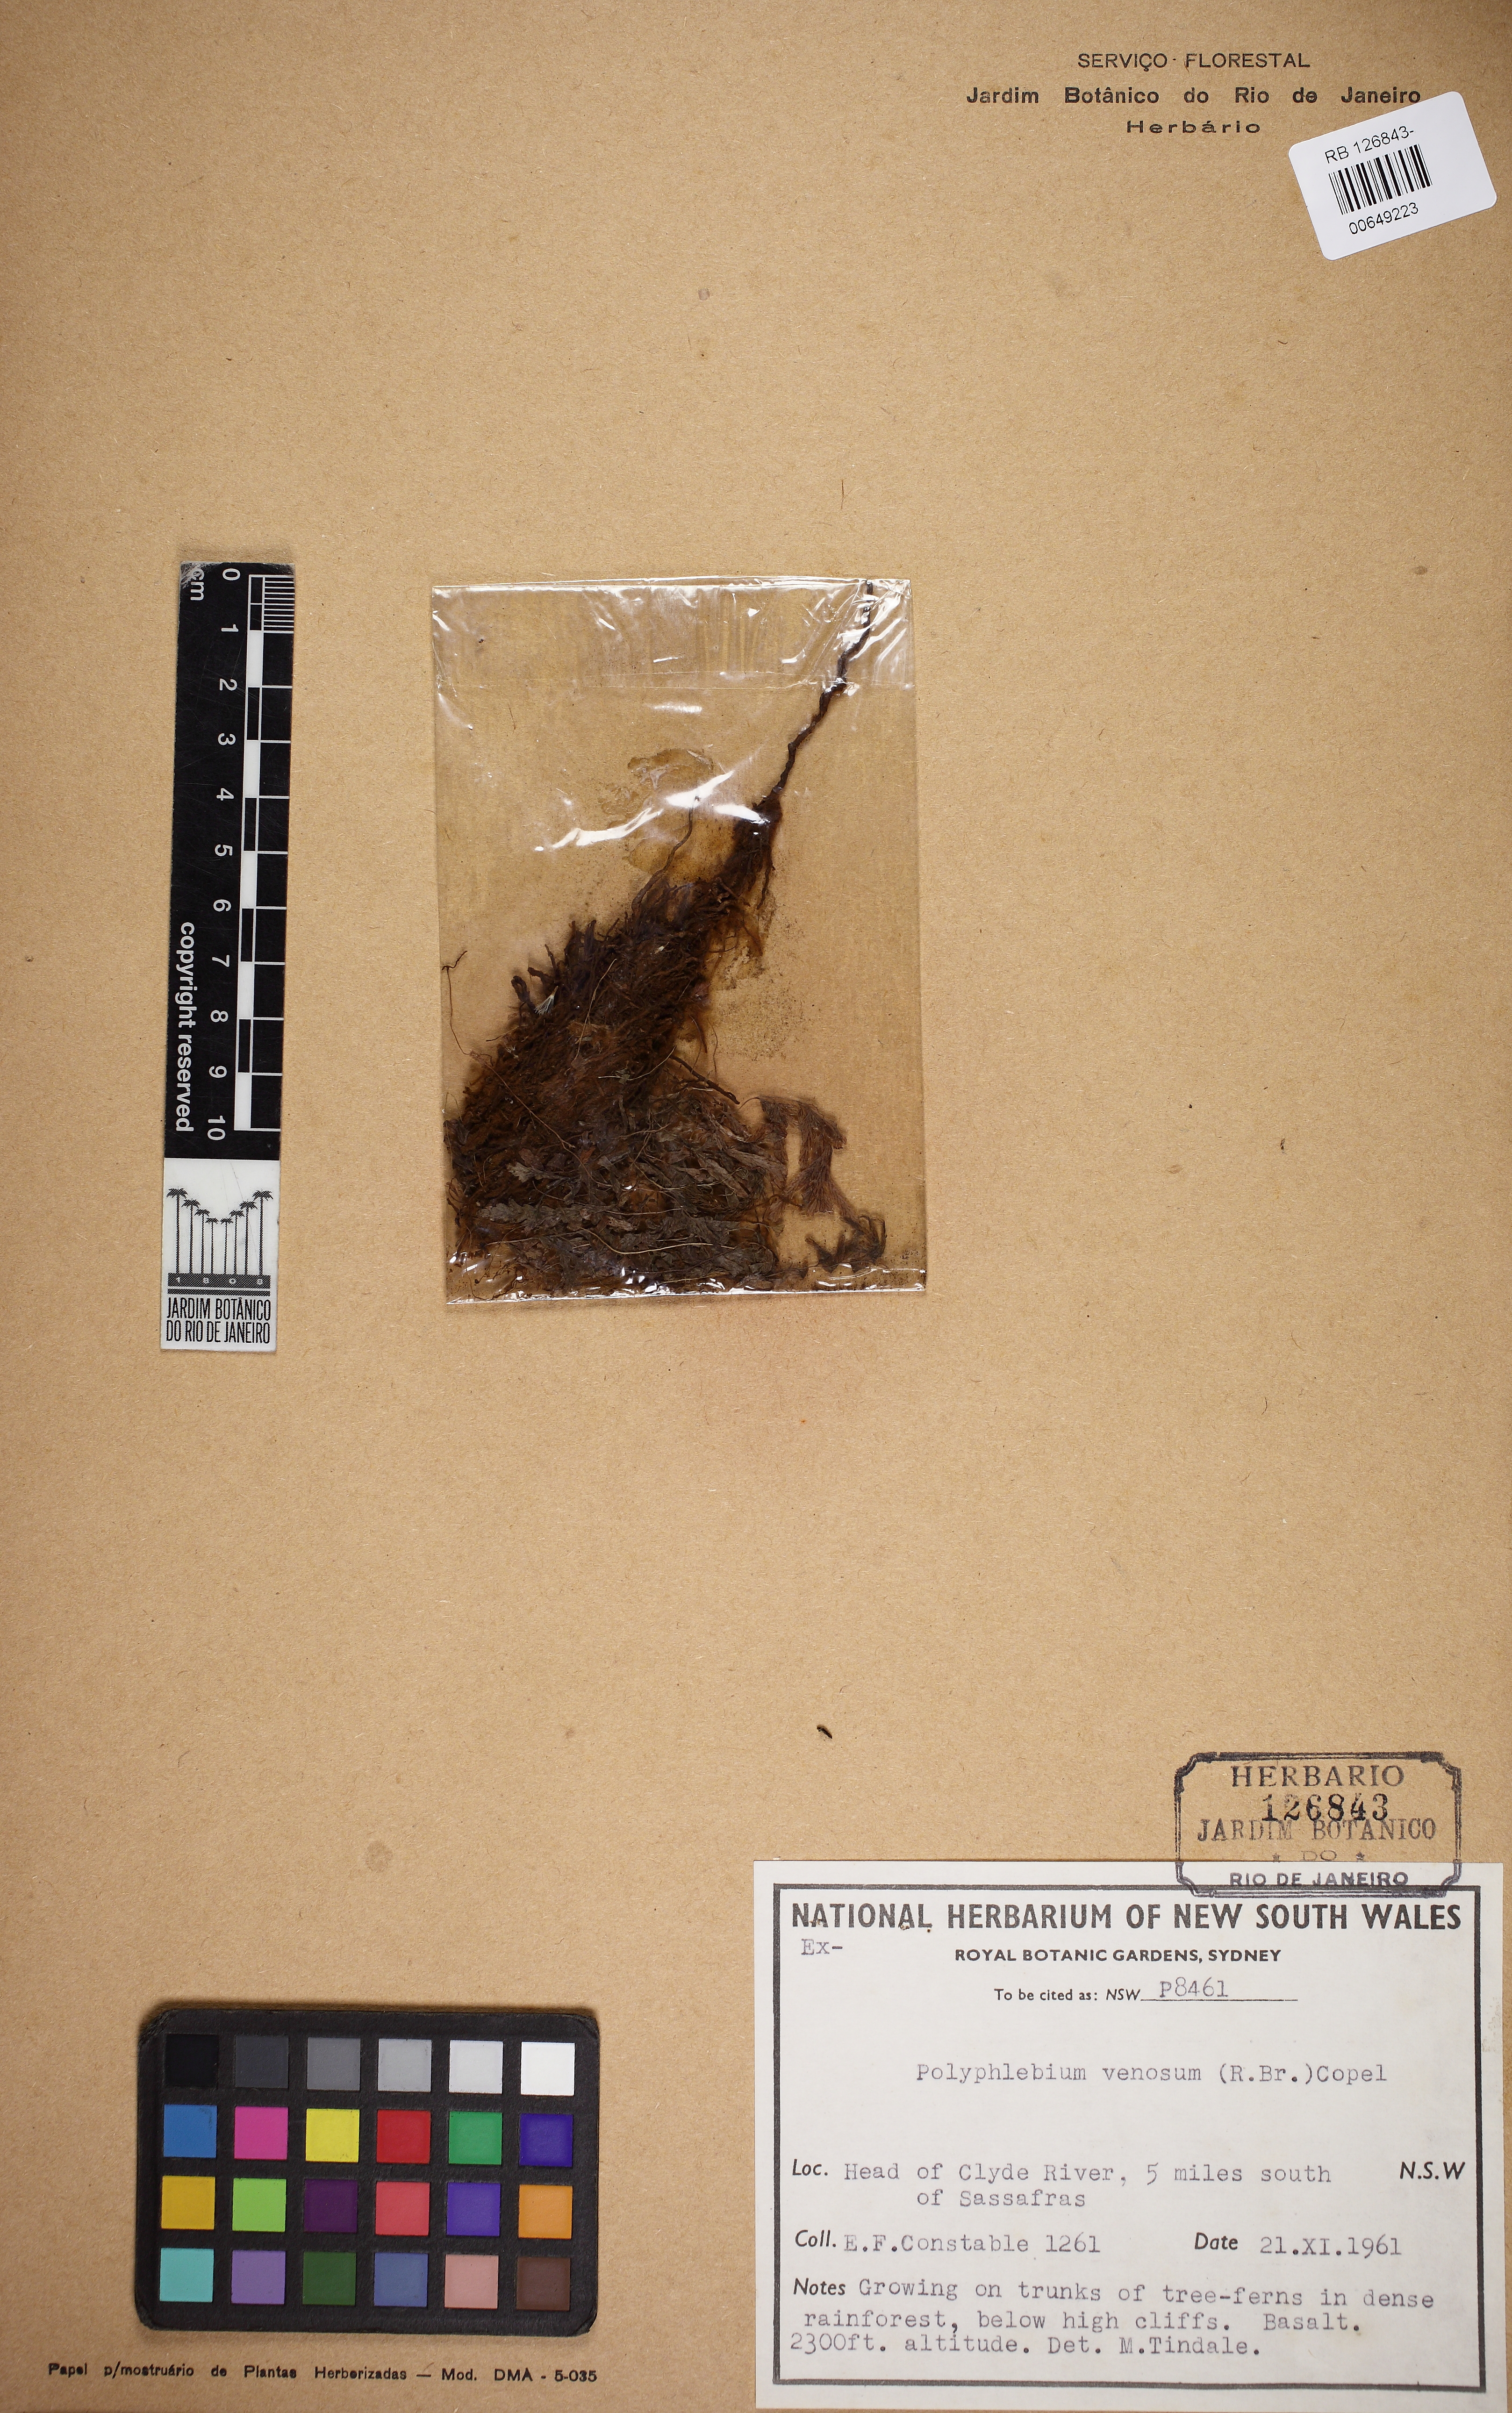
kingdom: Plantae
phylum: Tracheophyta
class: Polypodiopsida
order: Hymenophyllales
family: Hymenophyllaceae
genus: Polyphlebium
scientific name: Polyphlebium venosum
